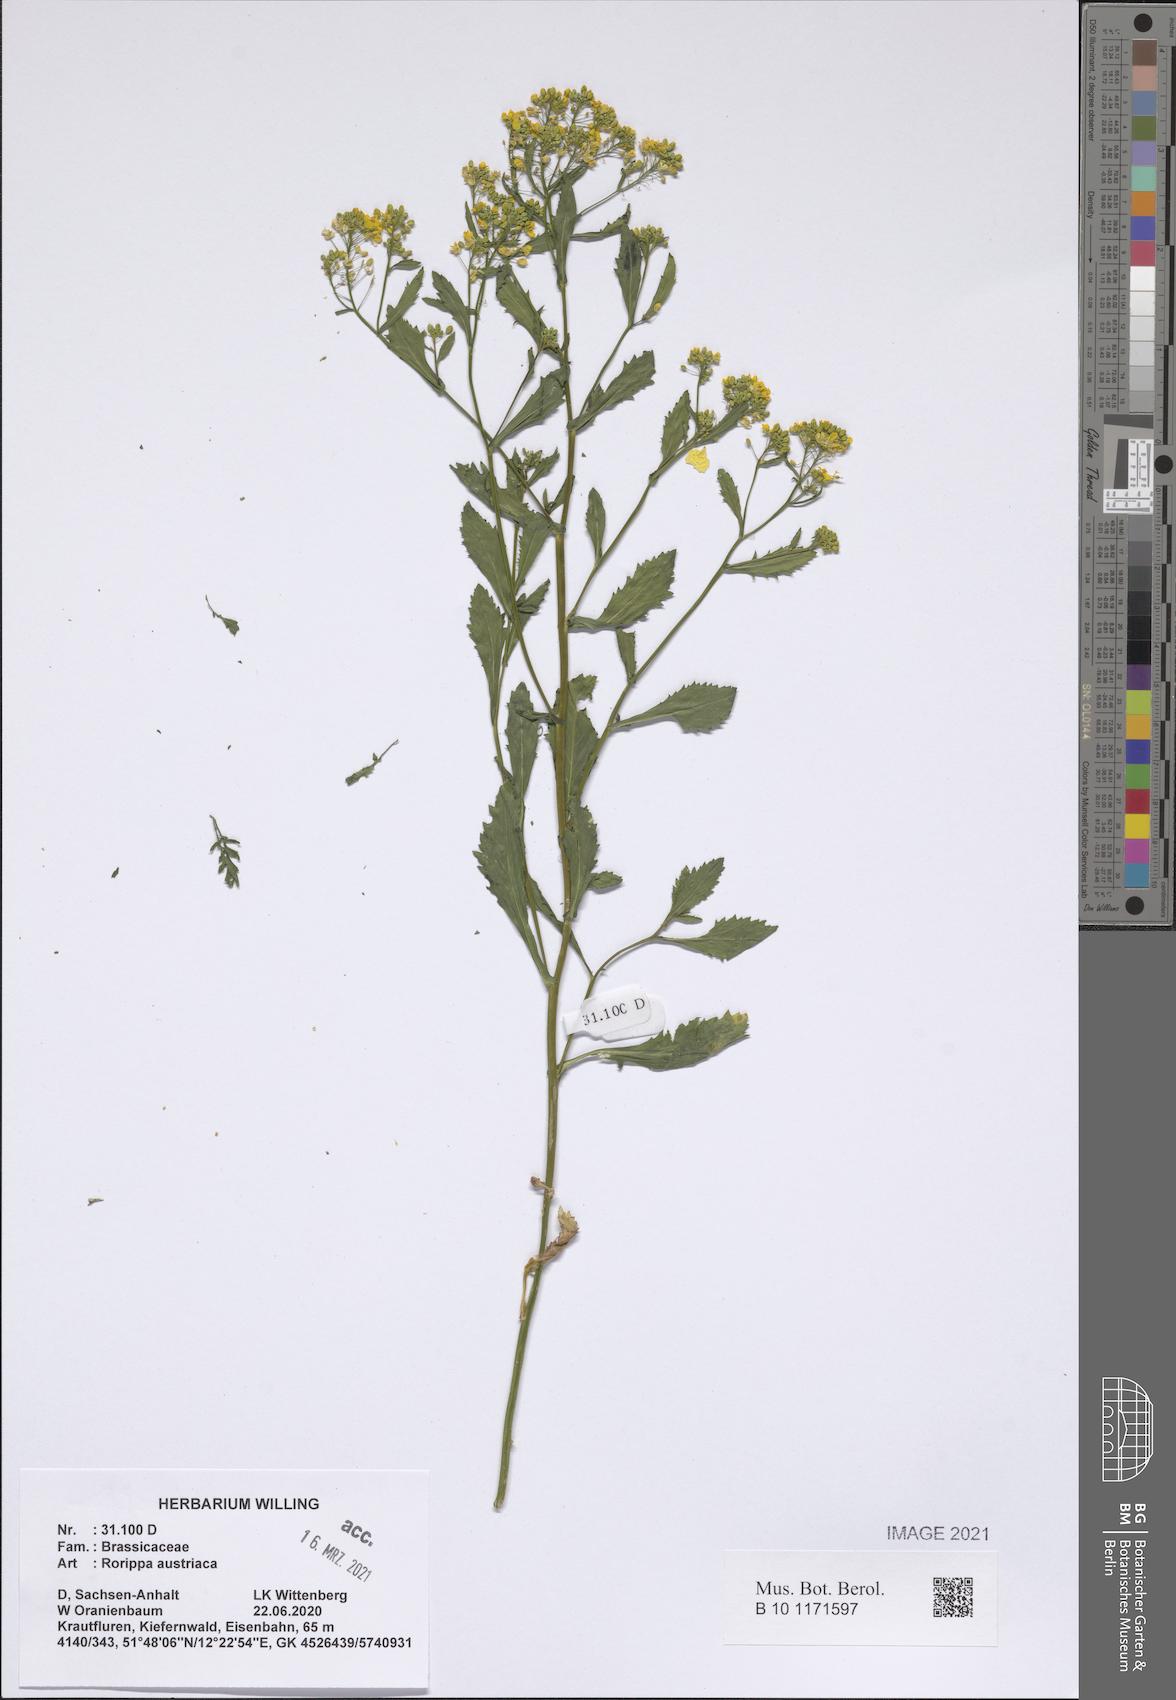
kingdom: Plantae
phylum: Tracheophyta
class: Magnoliopsida
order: Brassicales
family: Brassicaceae
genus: Rorippa
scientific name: Rorippa austriaca
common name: Austrian yellow-cress
